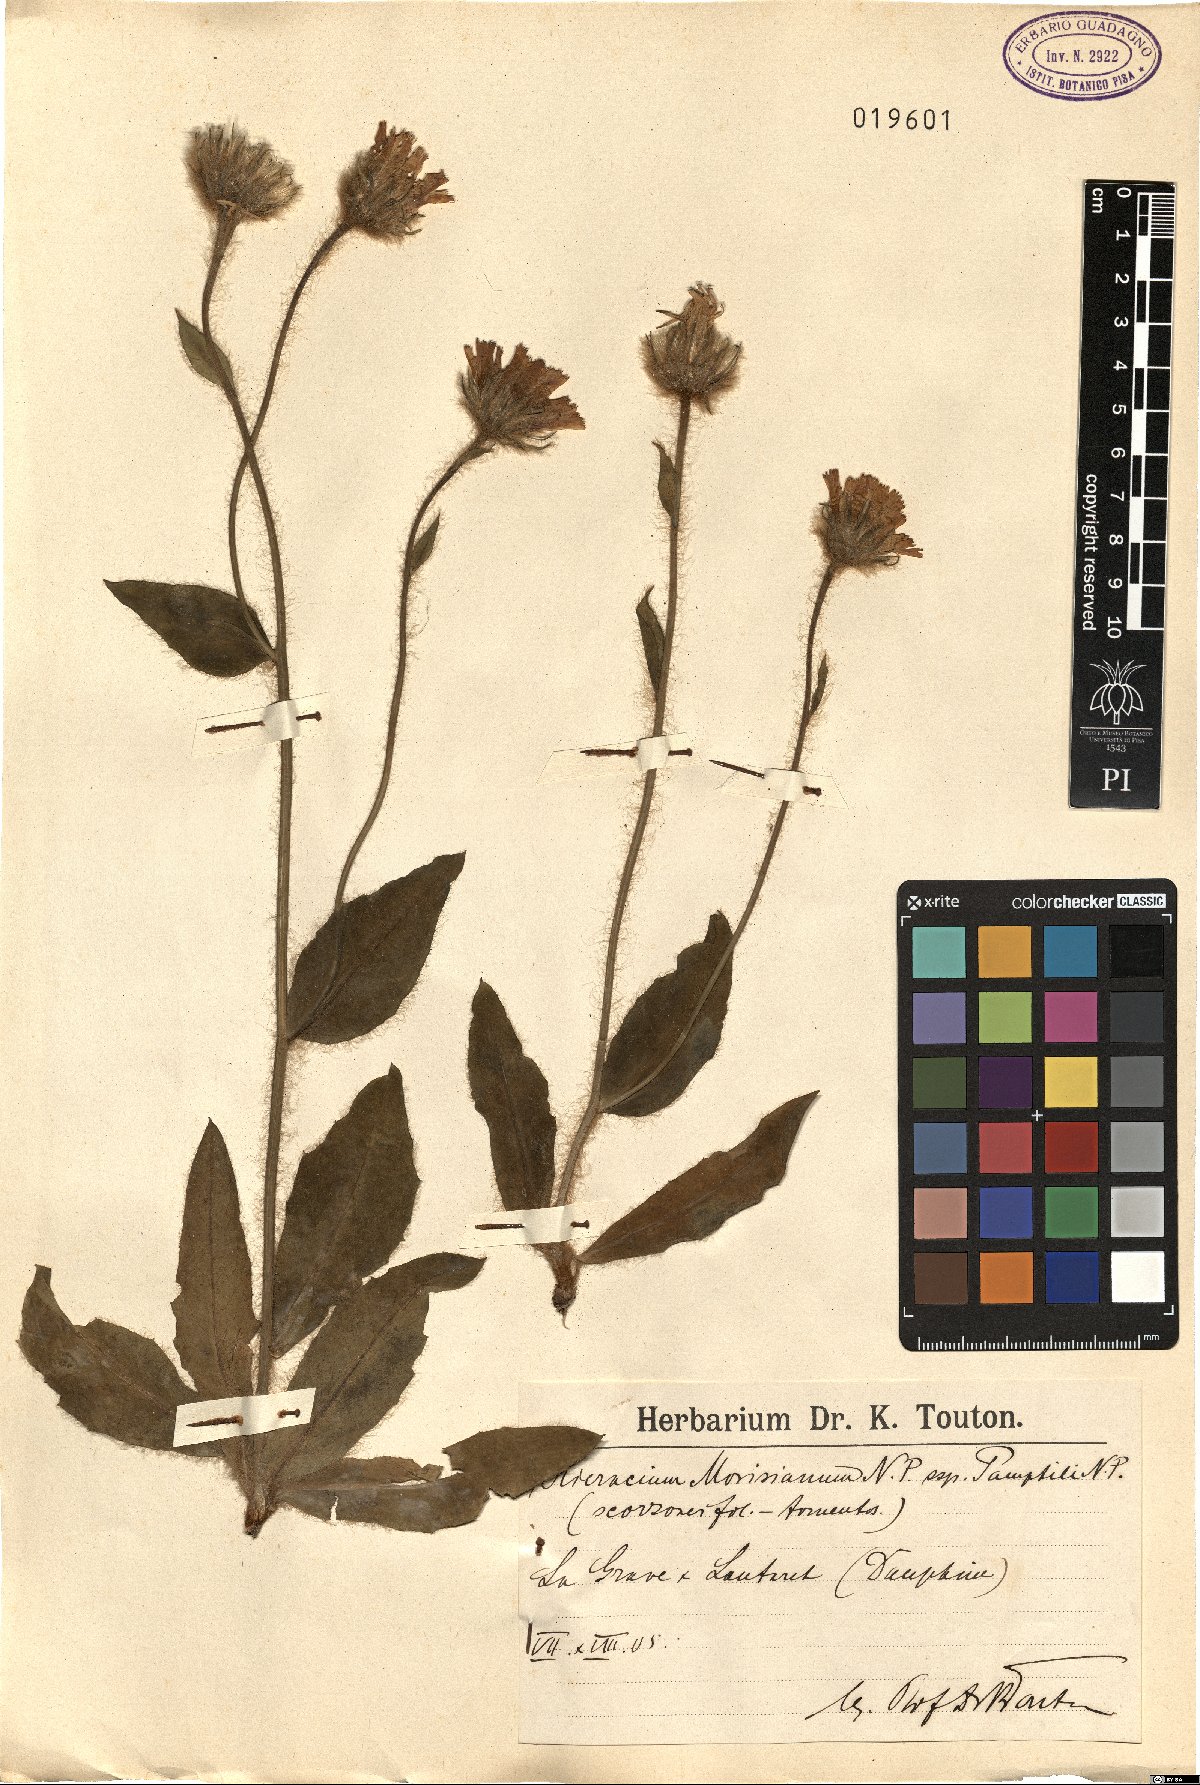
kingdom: Plantae
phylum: Tracheophyta
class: Magnoliopsida
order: Asterales
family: Asteraceae
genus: Hieracium
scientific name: Hieracium pamphilii
